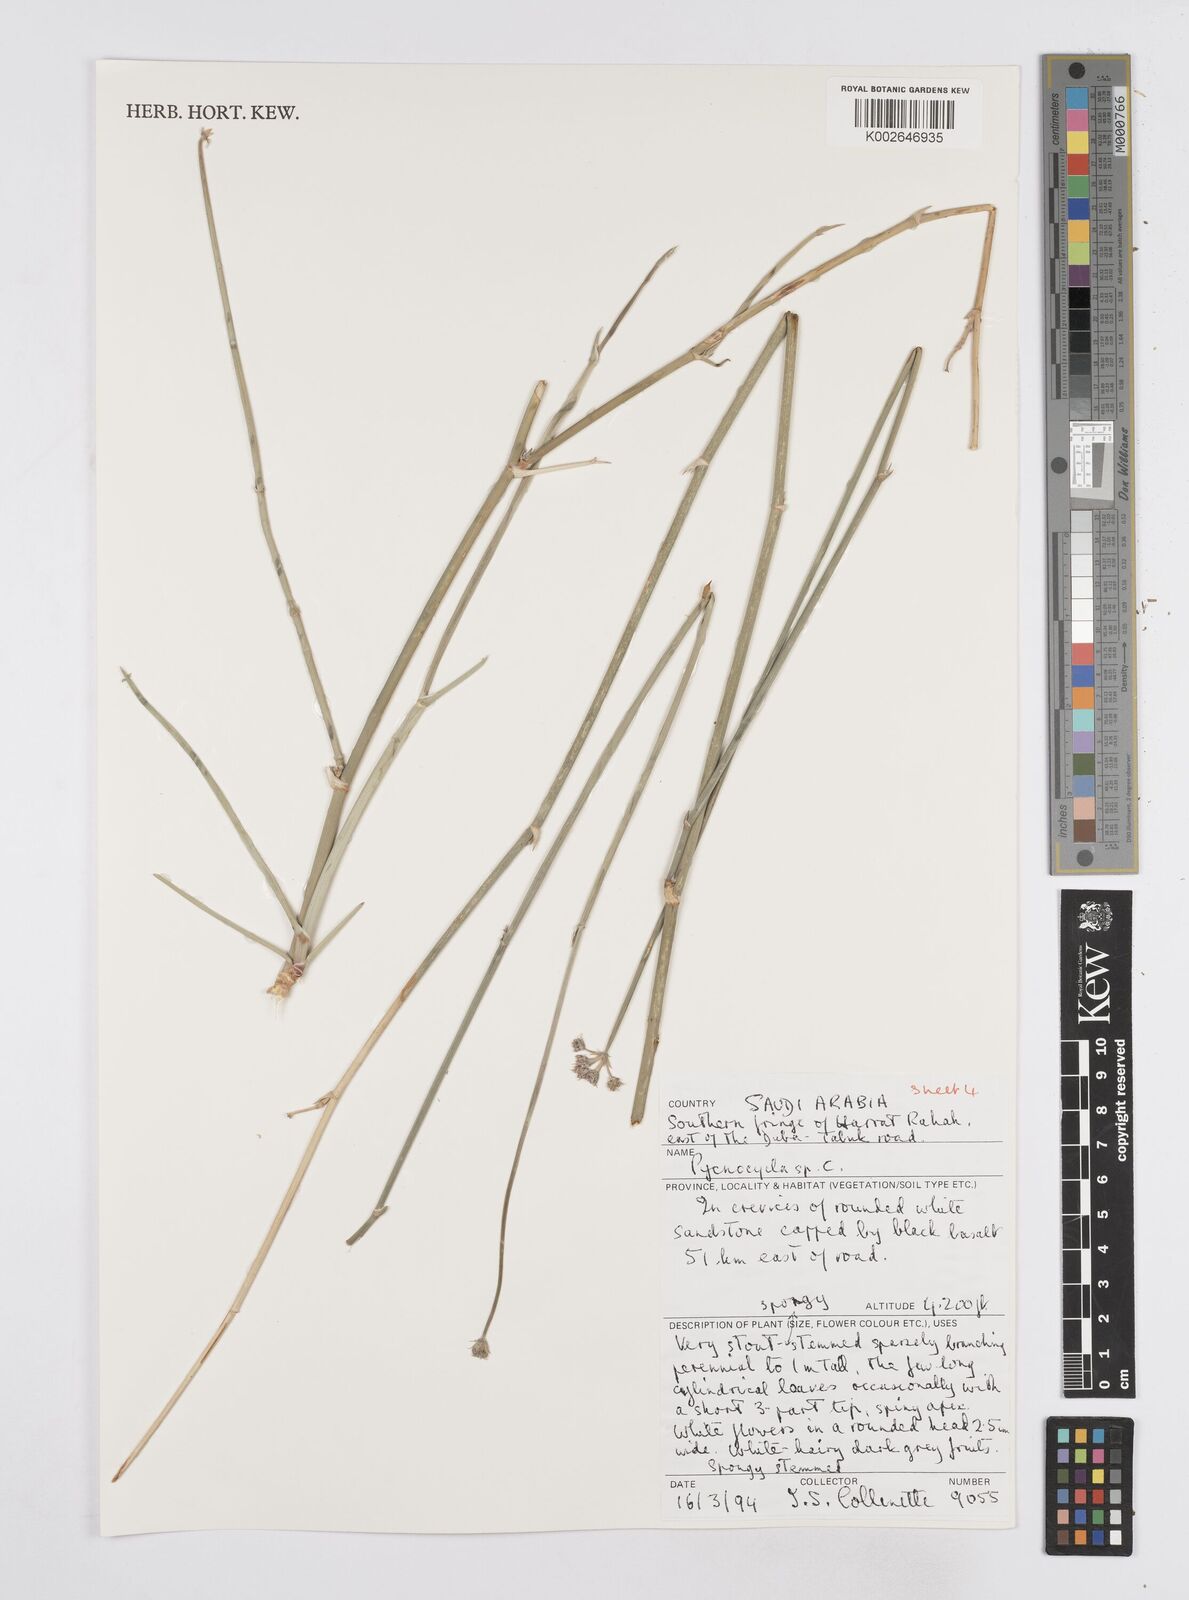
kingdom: Plantae
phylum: Tracheophyta
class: Magnoliopsida
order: Apiales
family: Apiaceae
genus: Pycnocycla
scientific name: Pycnocycla
